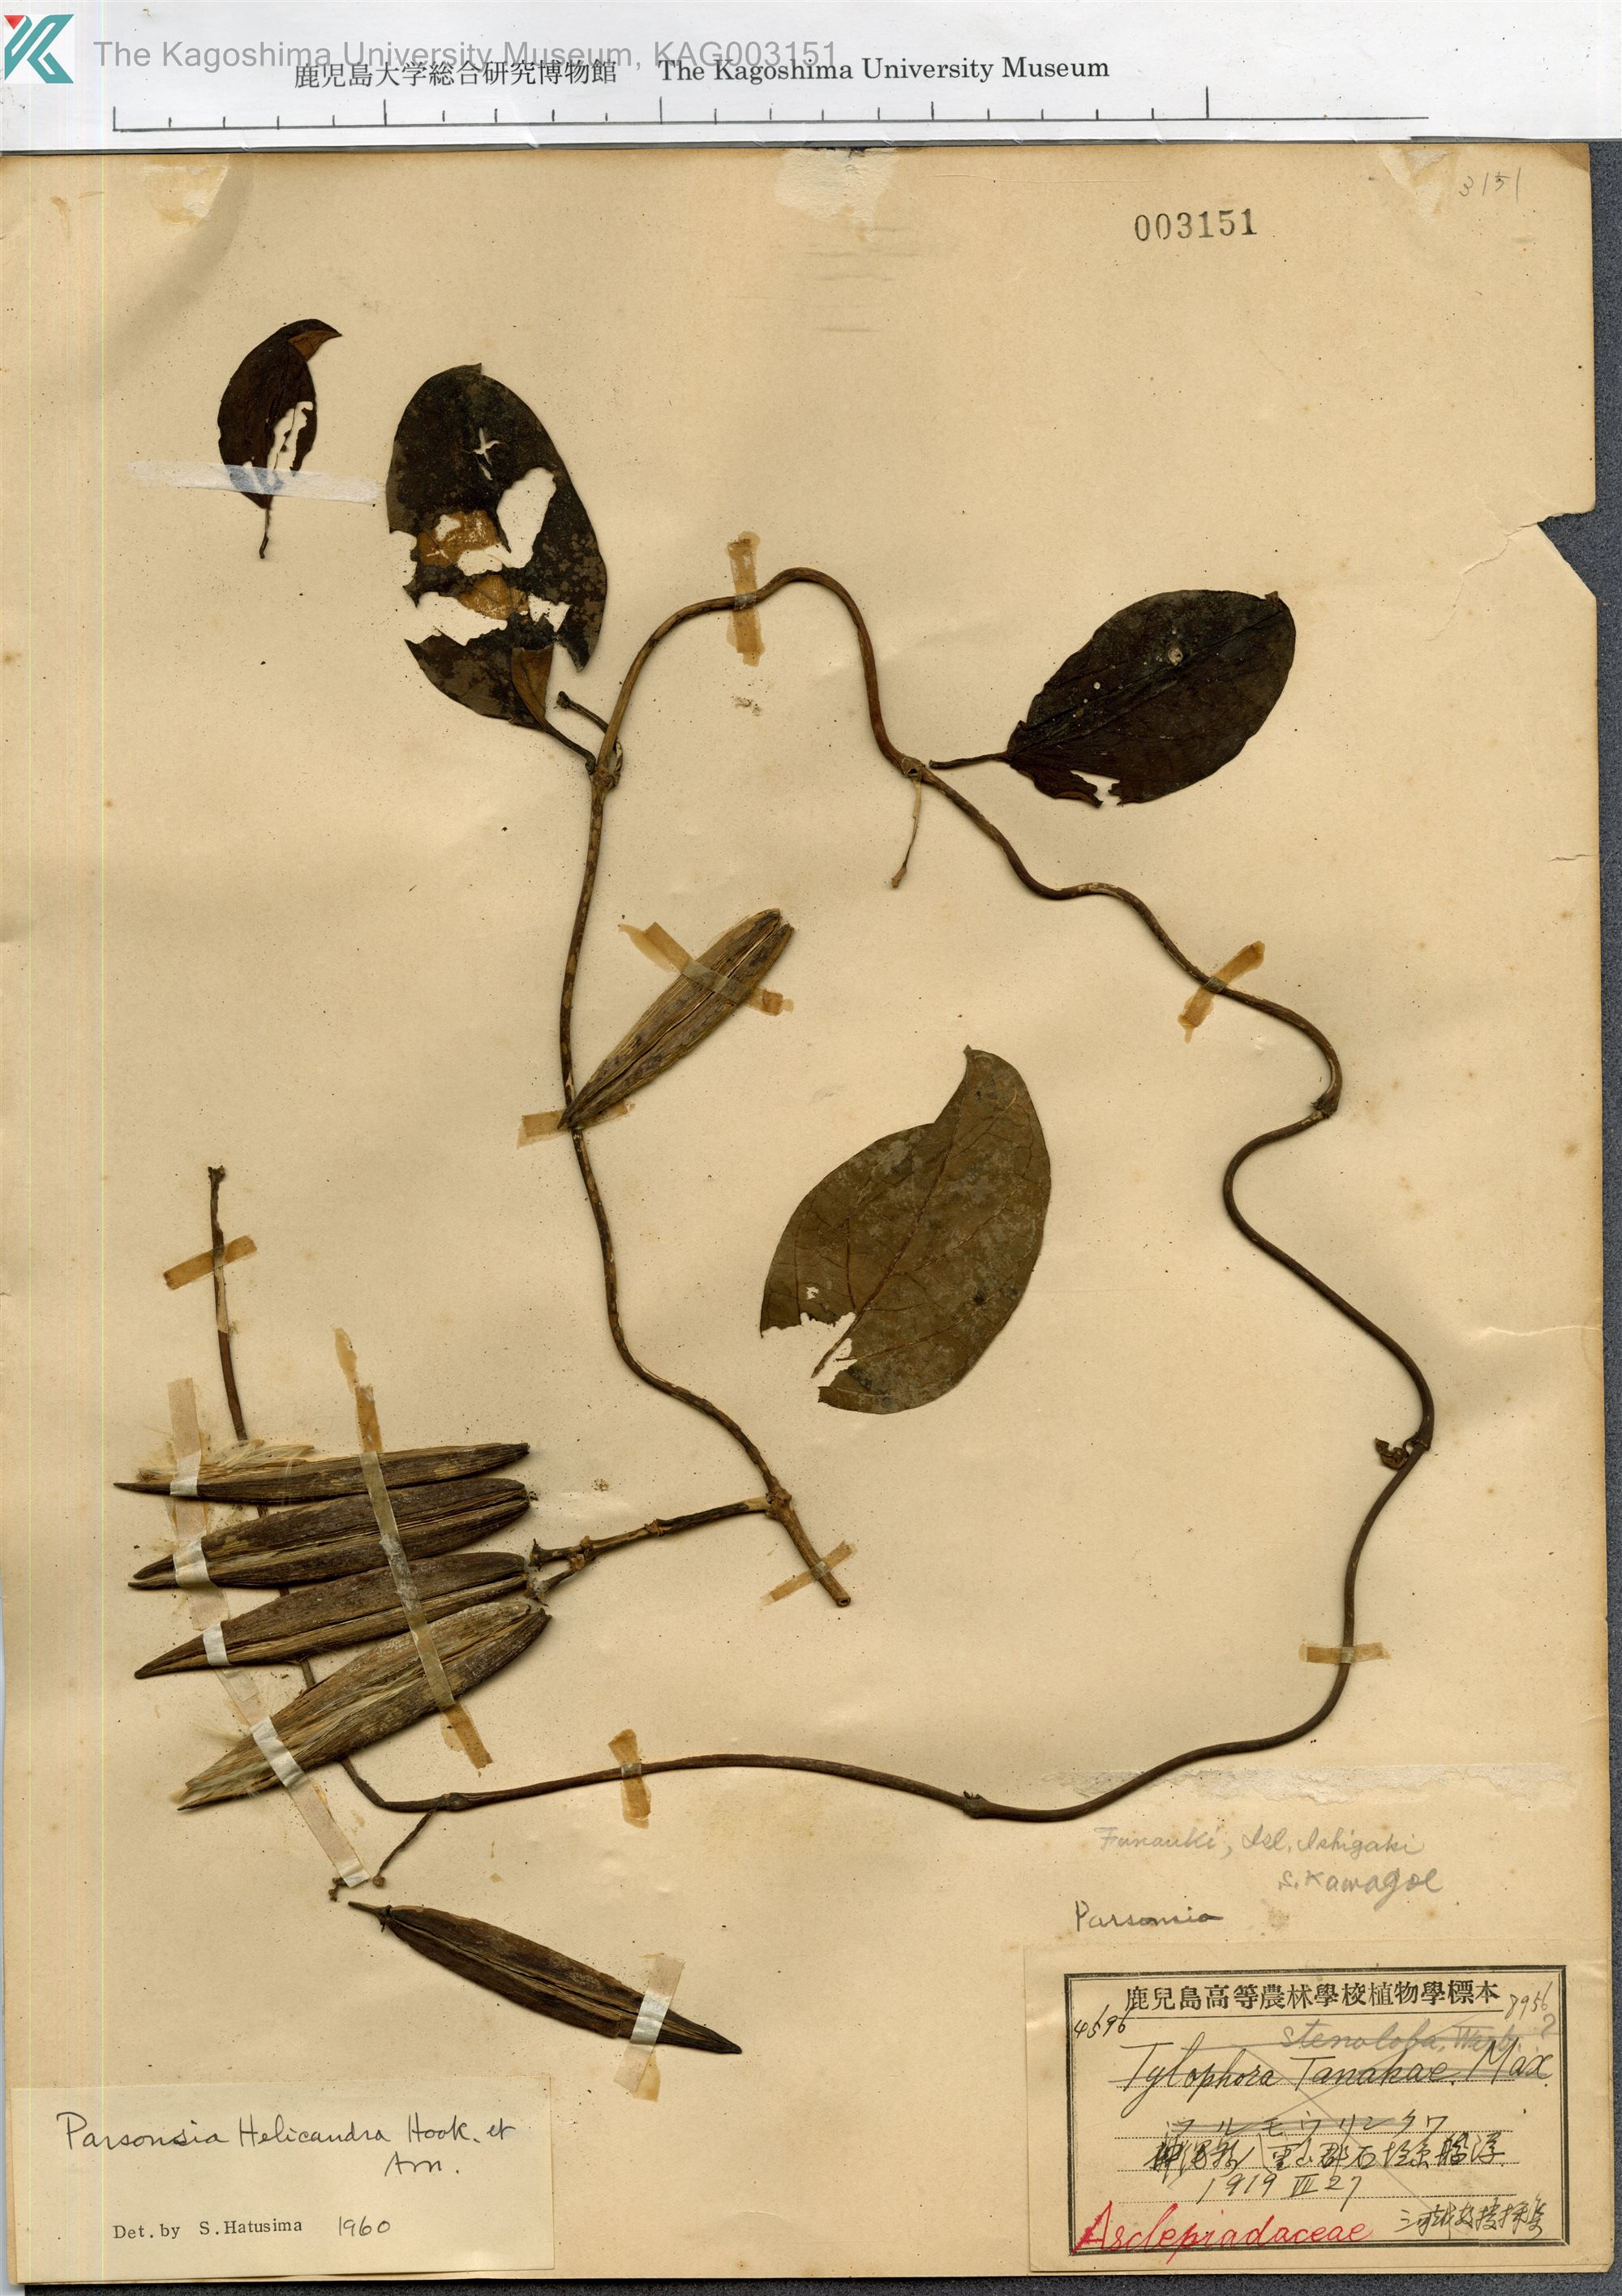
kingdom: Plantae
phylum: Tracheophyta
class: Magnoliopsida
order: Gentianales
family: Apocynaceae
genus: Parsonsia
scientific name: Parsonsia alboflavescens
